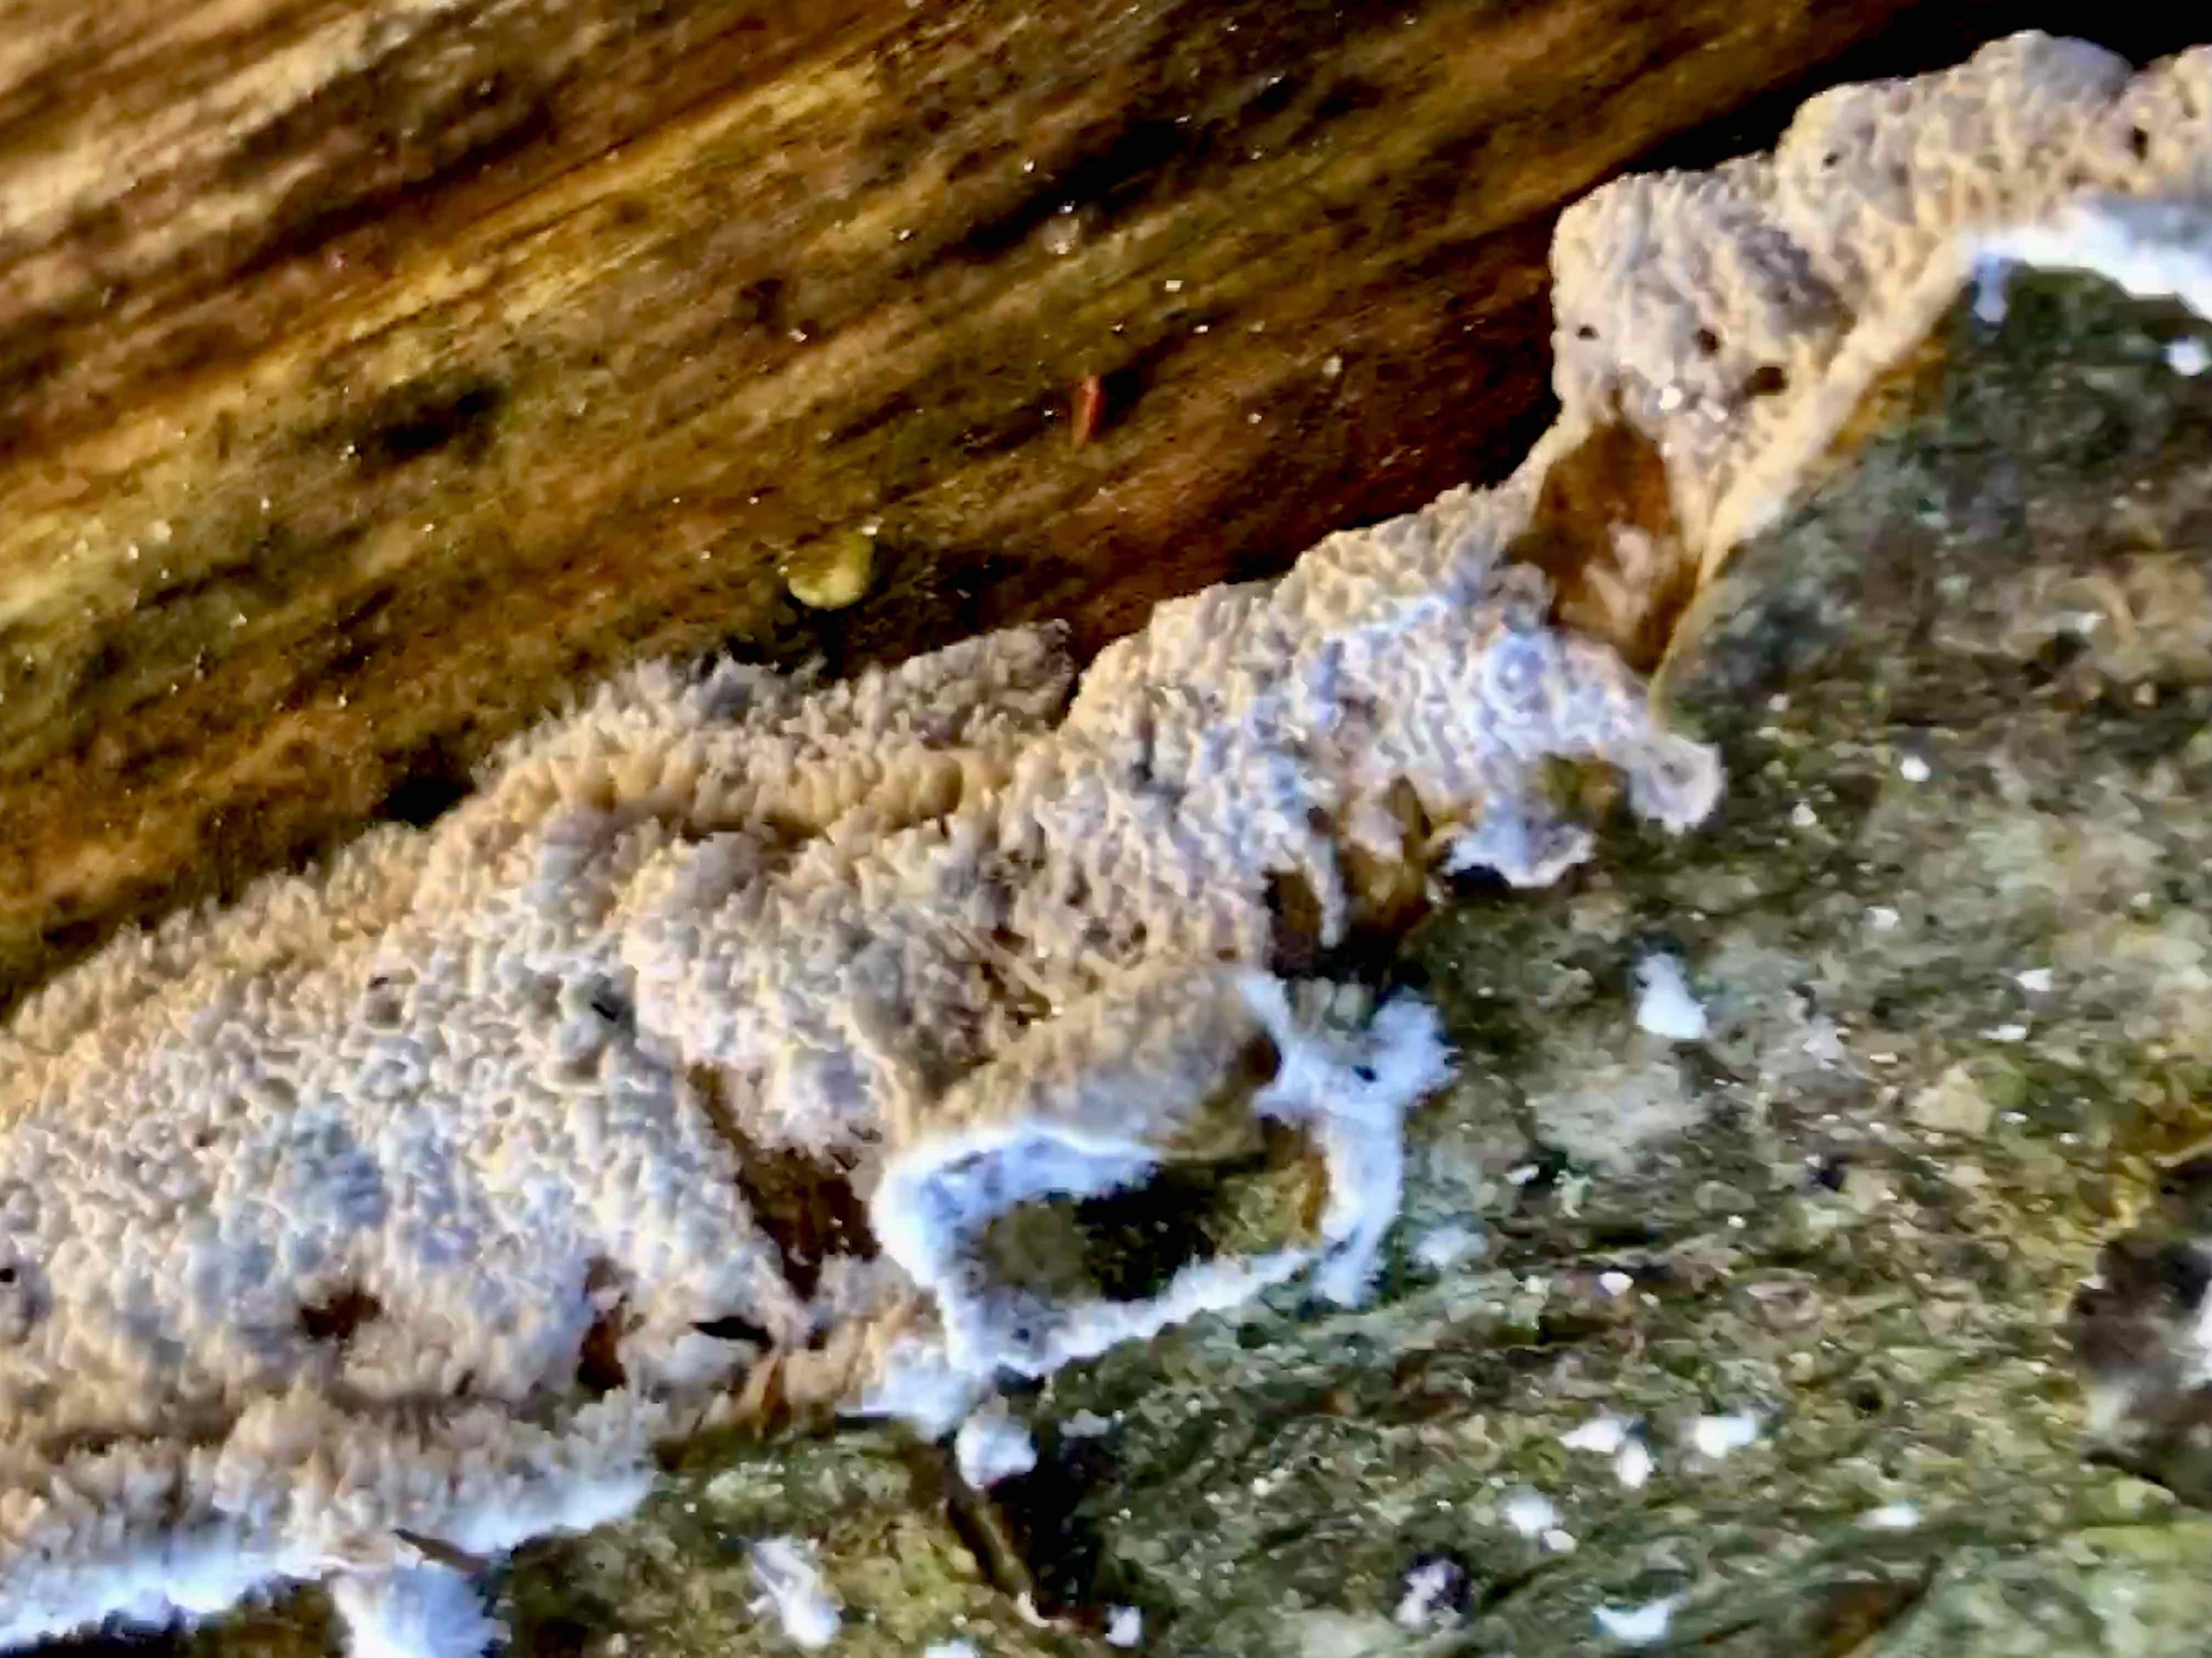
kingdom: Fungi
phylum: Basidiomycota
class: Agaricomycetes
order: Corticiales
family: Corticiaceae
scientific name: Corticiaceae
